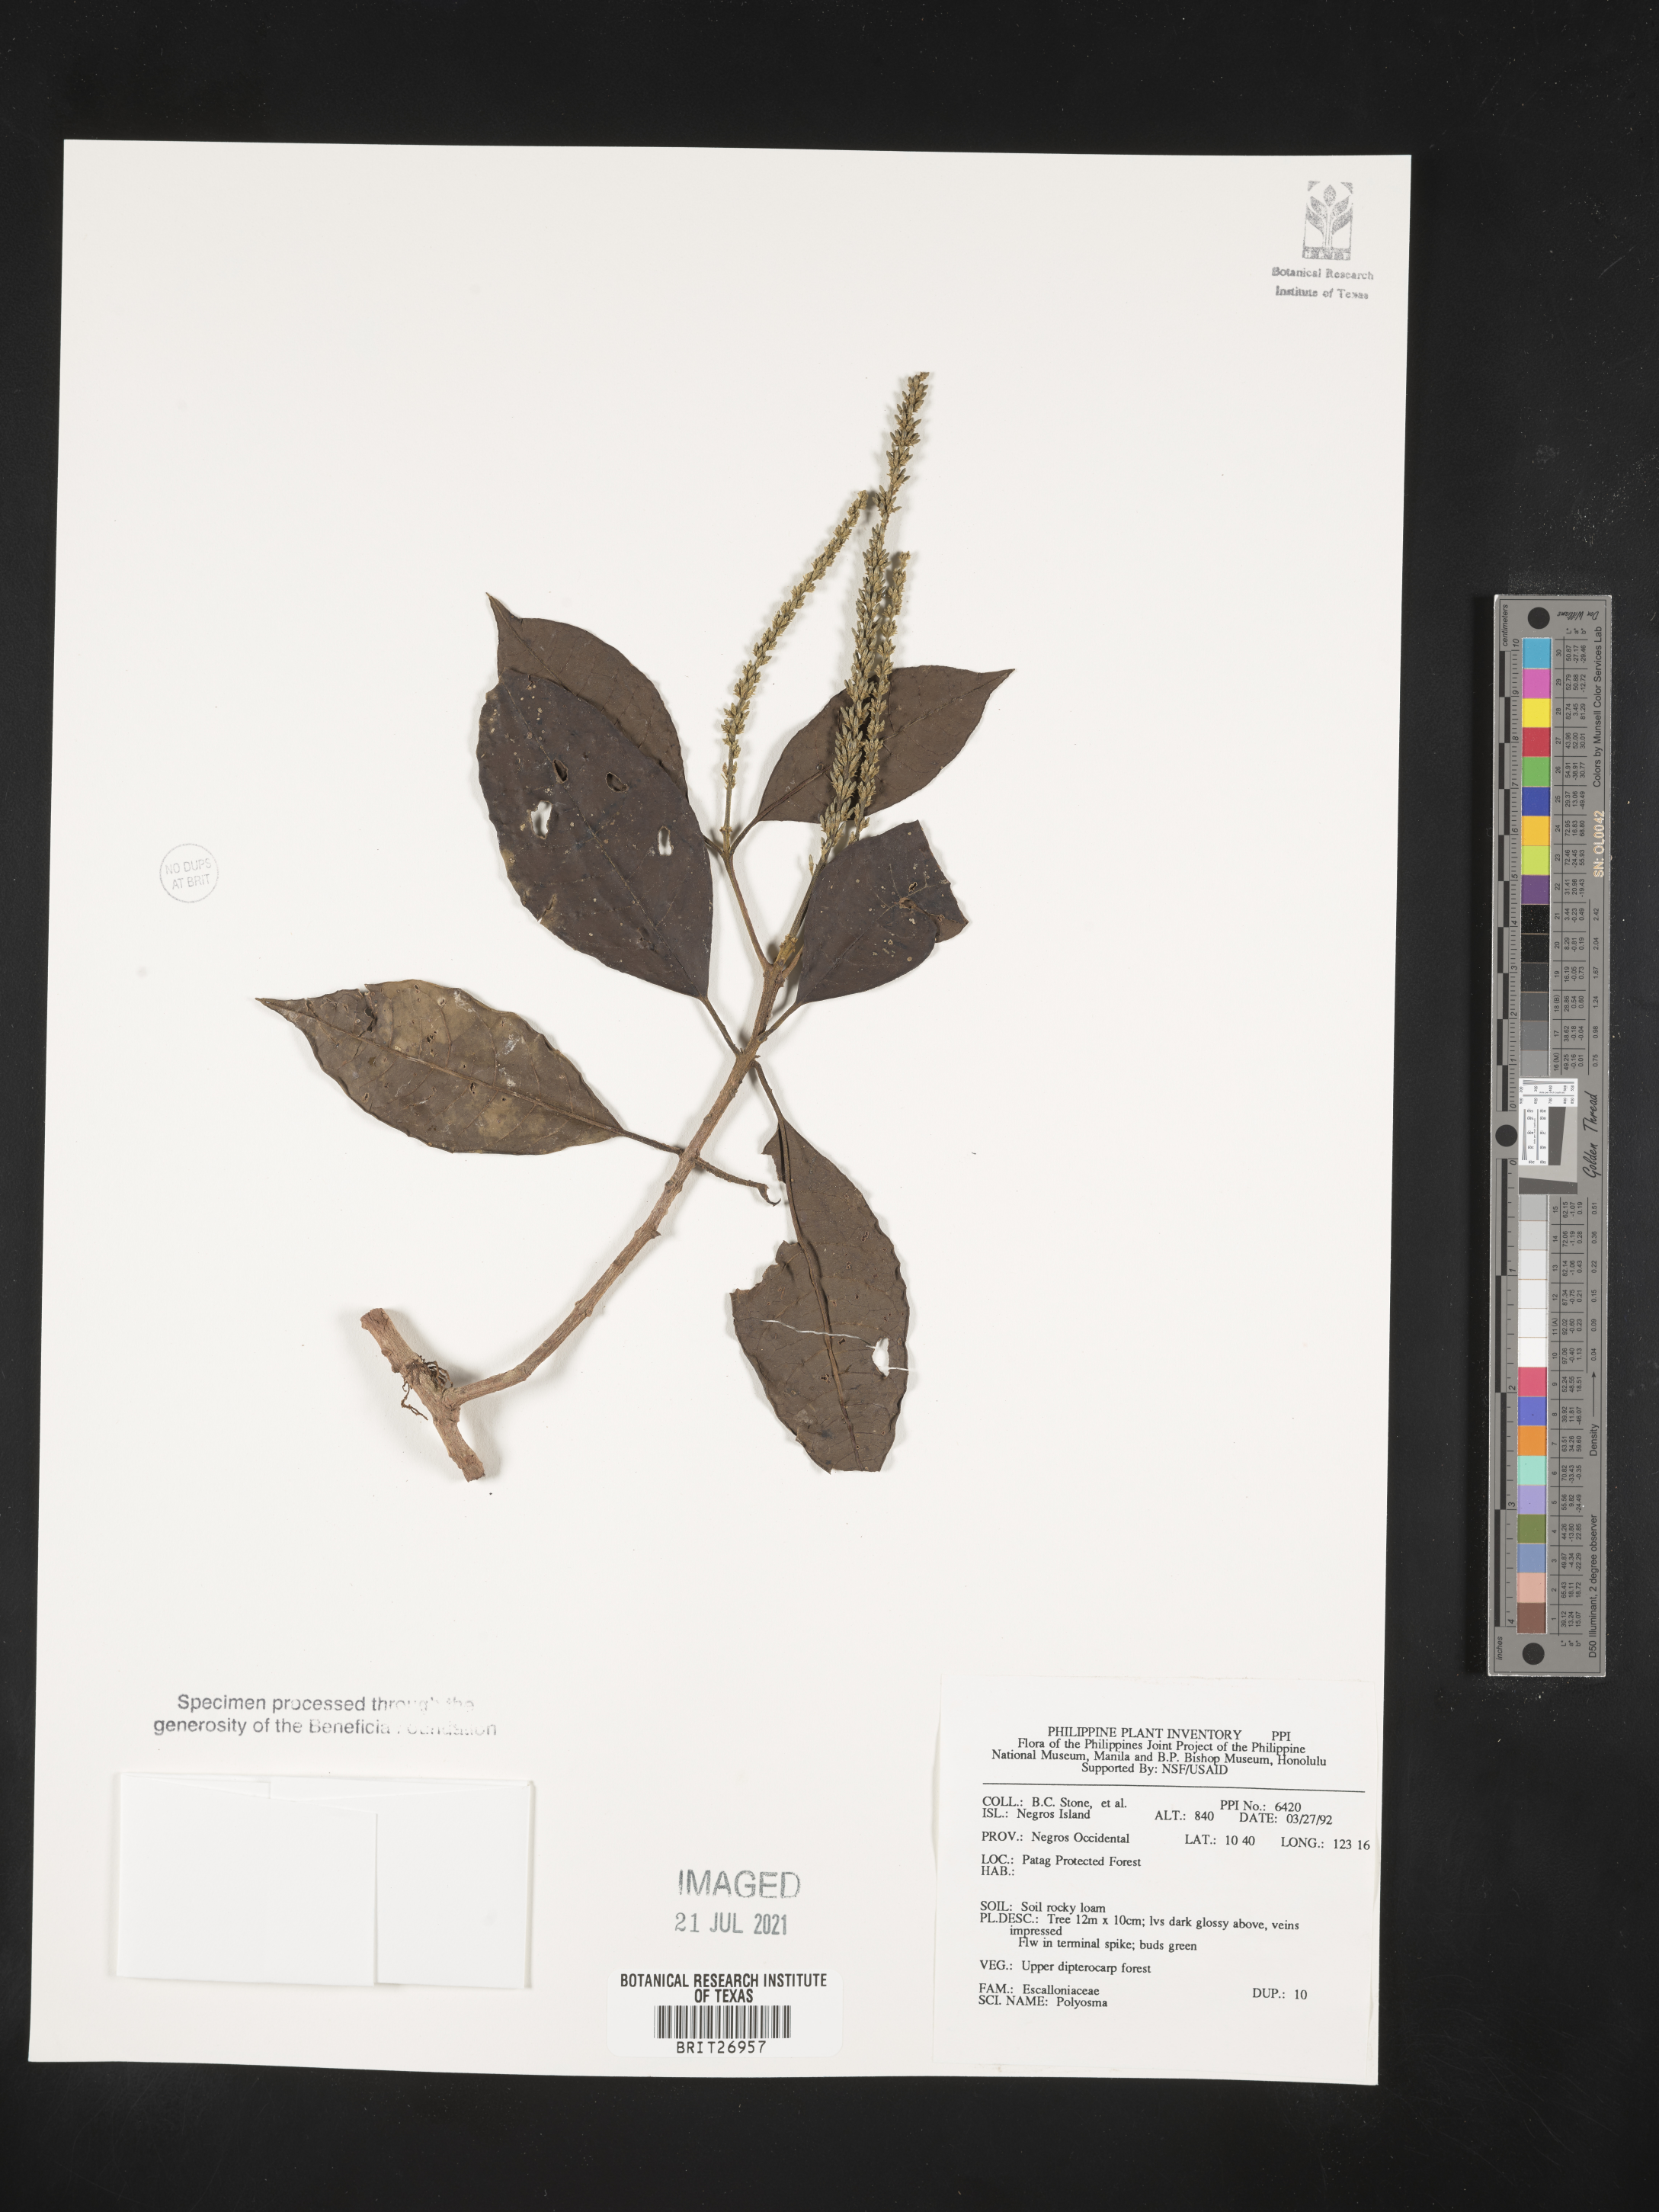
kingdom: Plantae
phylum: Tracheophyta
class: Magnoliopsida
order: Escalloniales
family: Escalloniaceae
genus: Polyosma
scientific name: Polyosma
